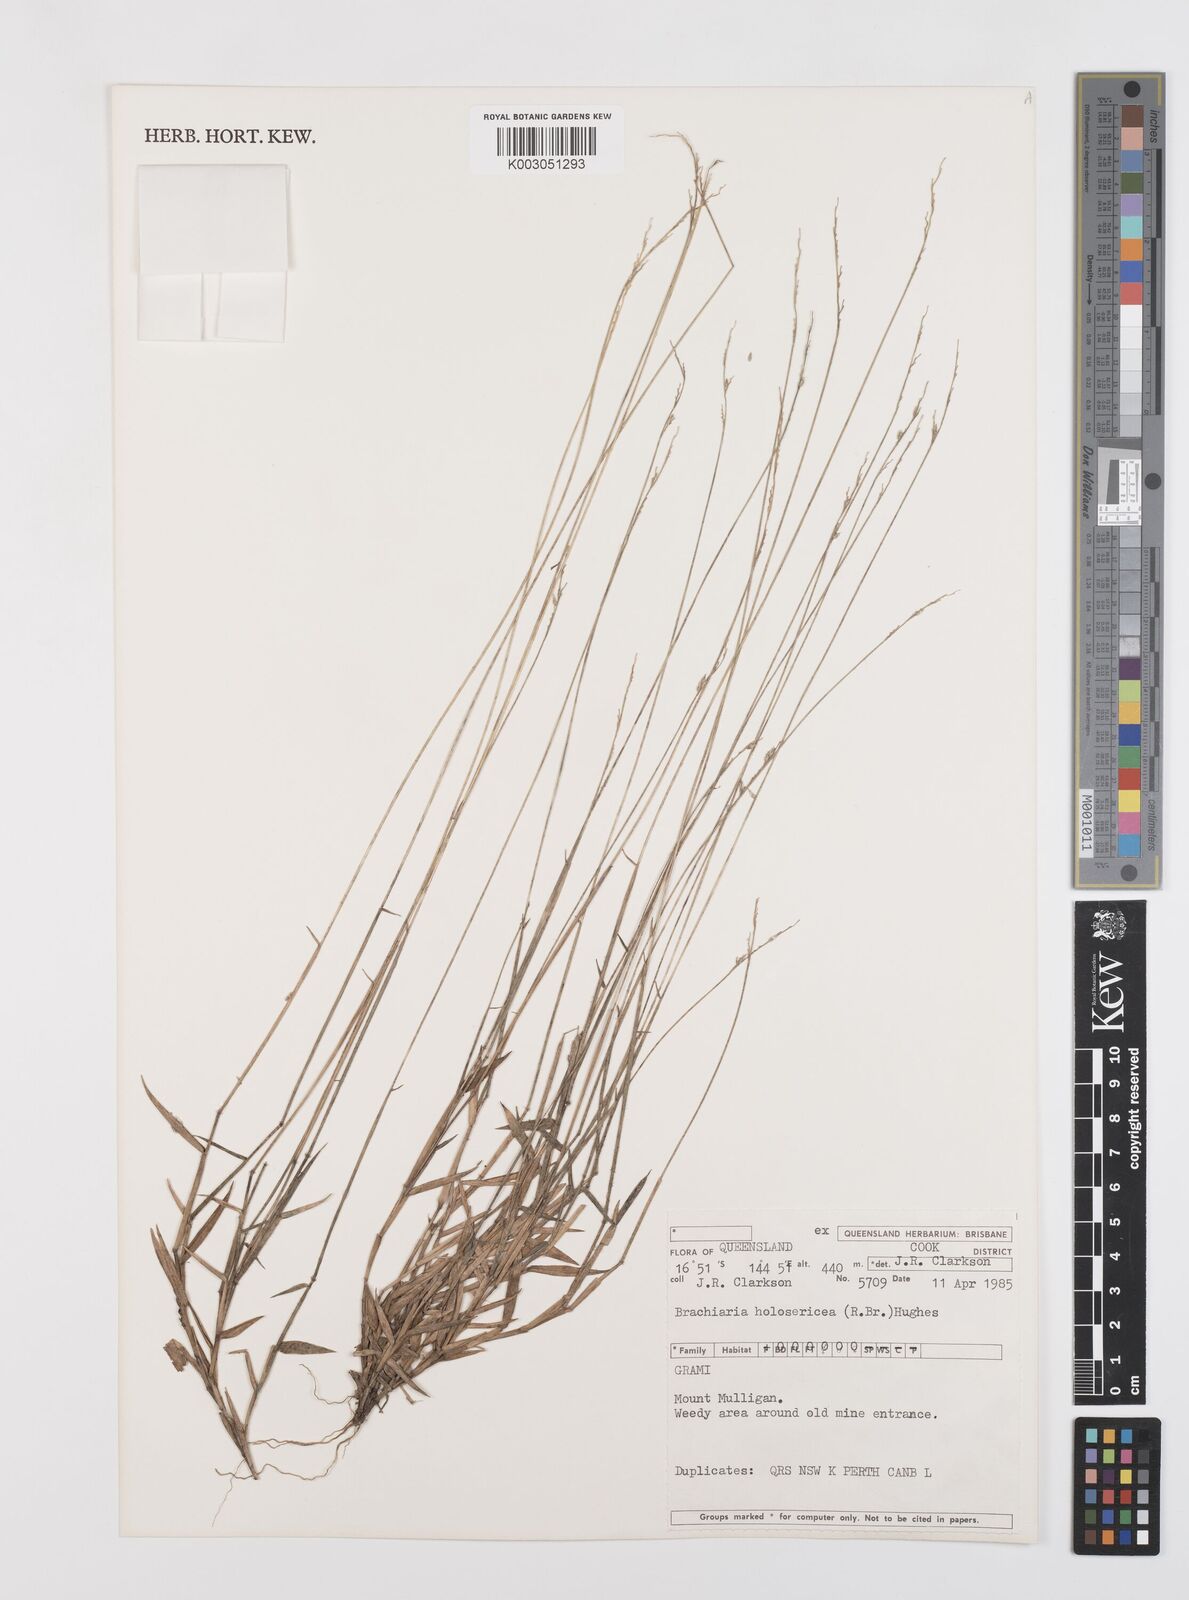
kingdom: Plantae
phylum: Tracheophyta
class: Liliopsida
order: Poales
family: Poaceae
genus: Urochloa
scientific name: Urochloa holosericea
